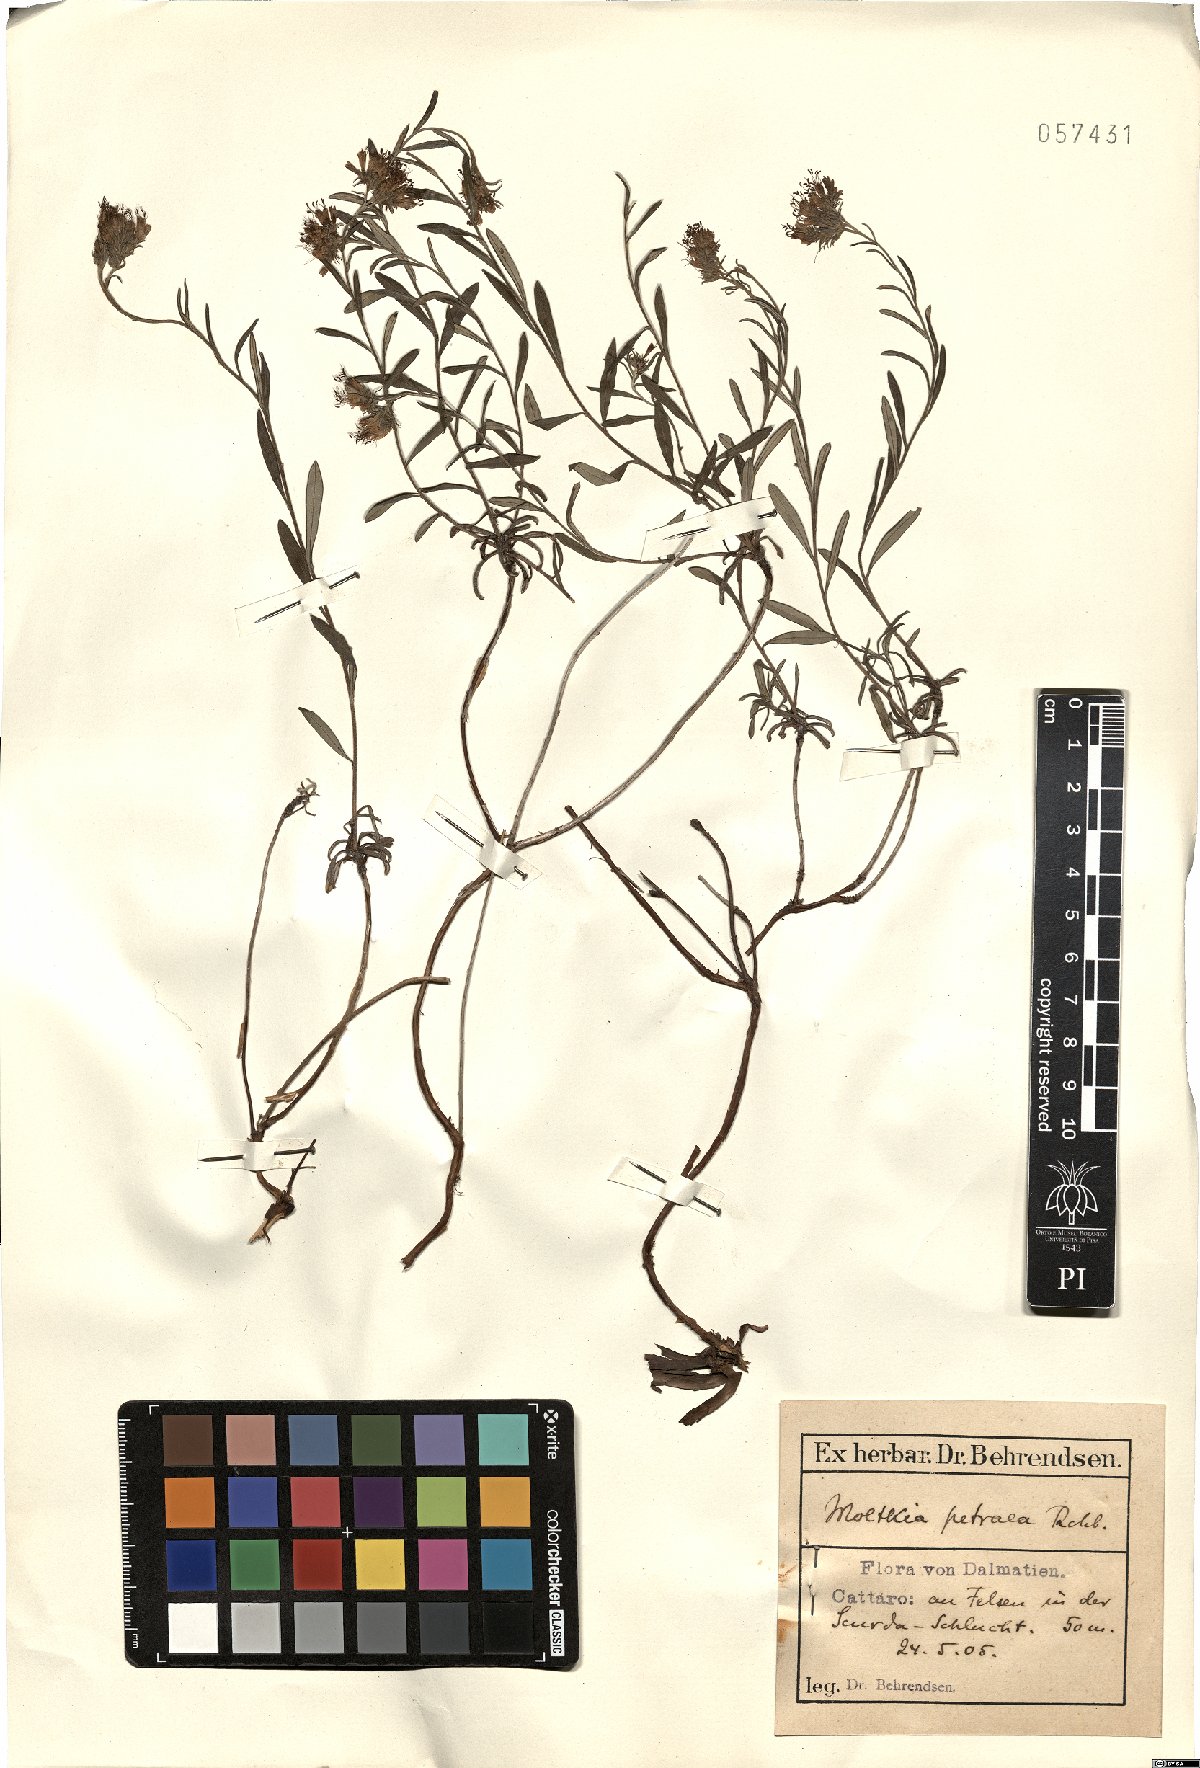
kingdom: Plantae
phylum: Tracheophyta
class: Magnoliopsida
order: Boraginales
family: Boraginaceae
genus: Moltkia
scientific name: Moltkia petraea
